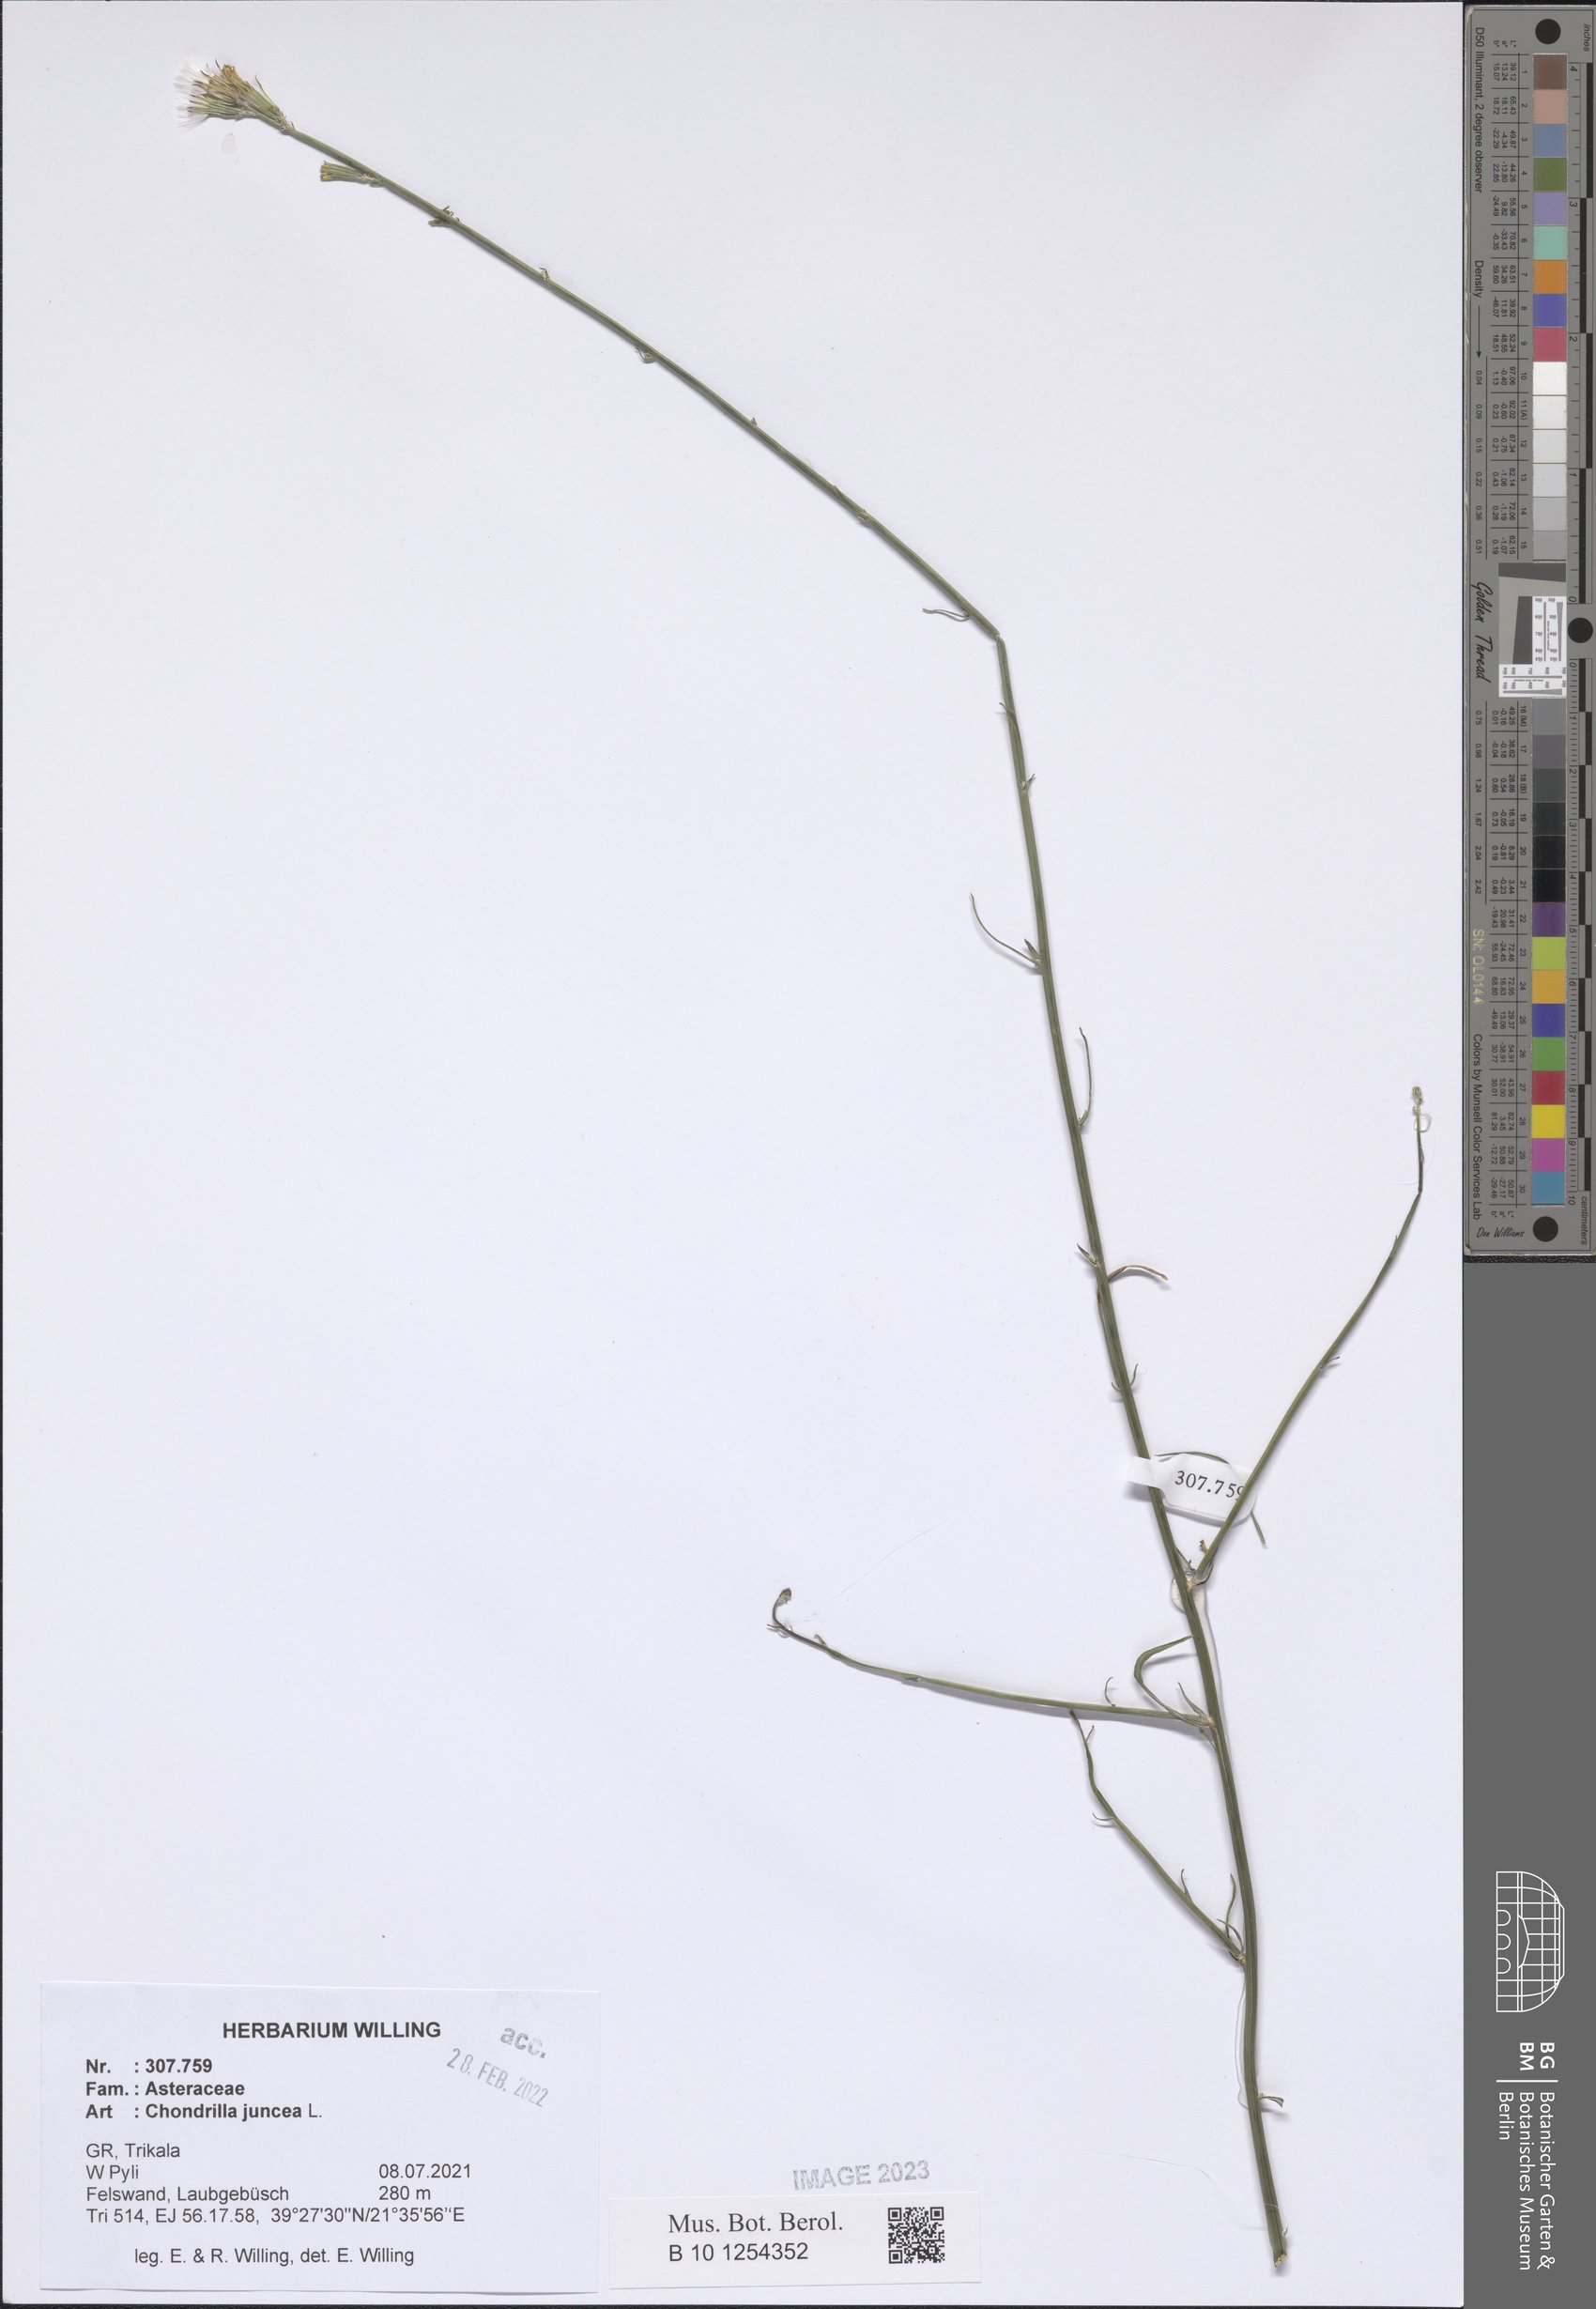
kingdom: Plantae
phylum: Tracheophyta
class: Magnoliopsida
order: Asterales
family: Asteraceae
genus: Chondrilla
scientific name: Chondrilla juncea
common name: Skeleton weed
